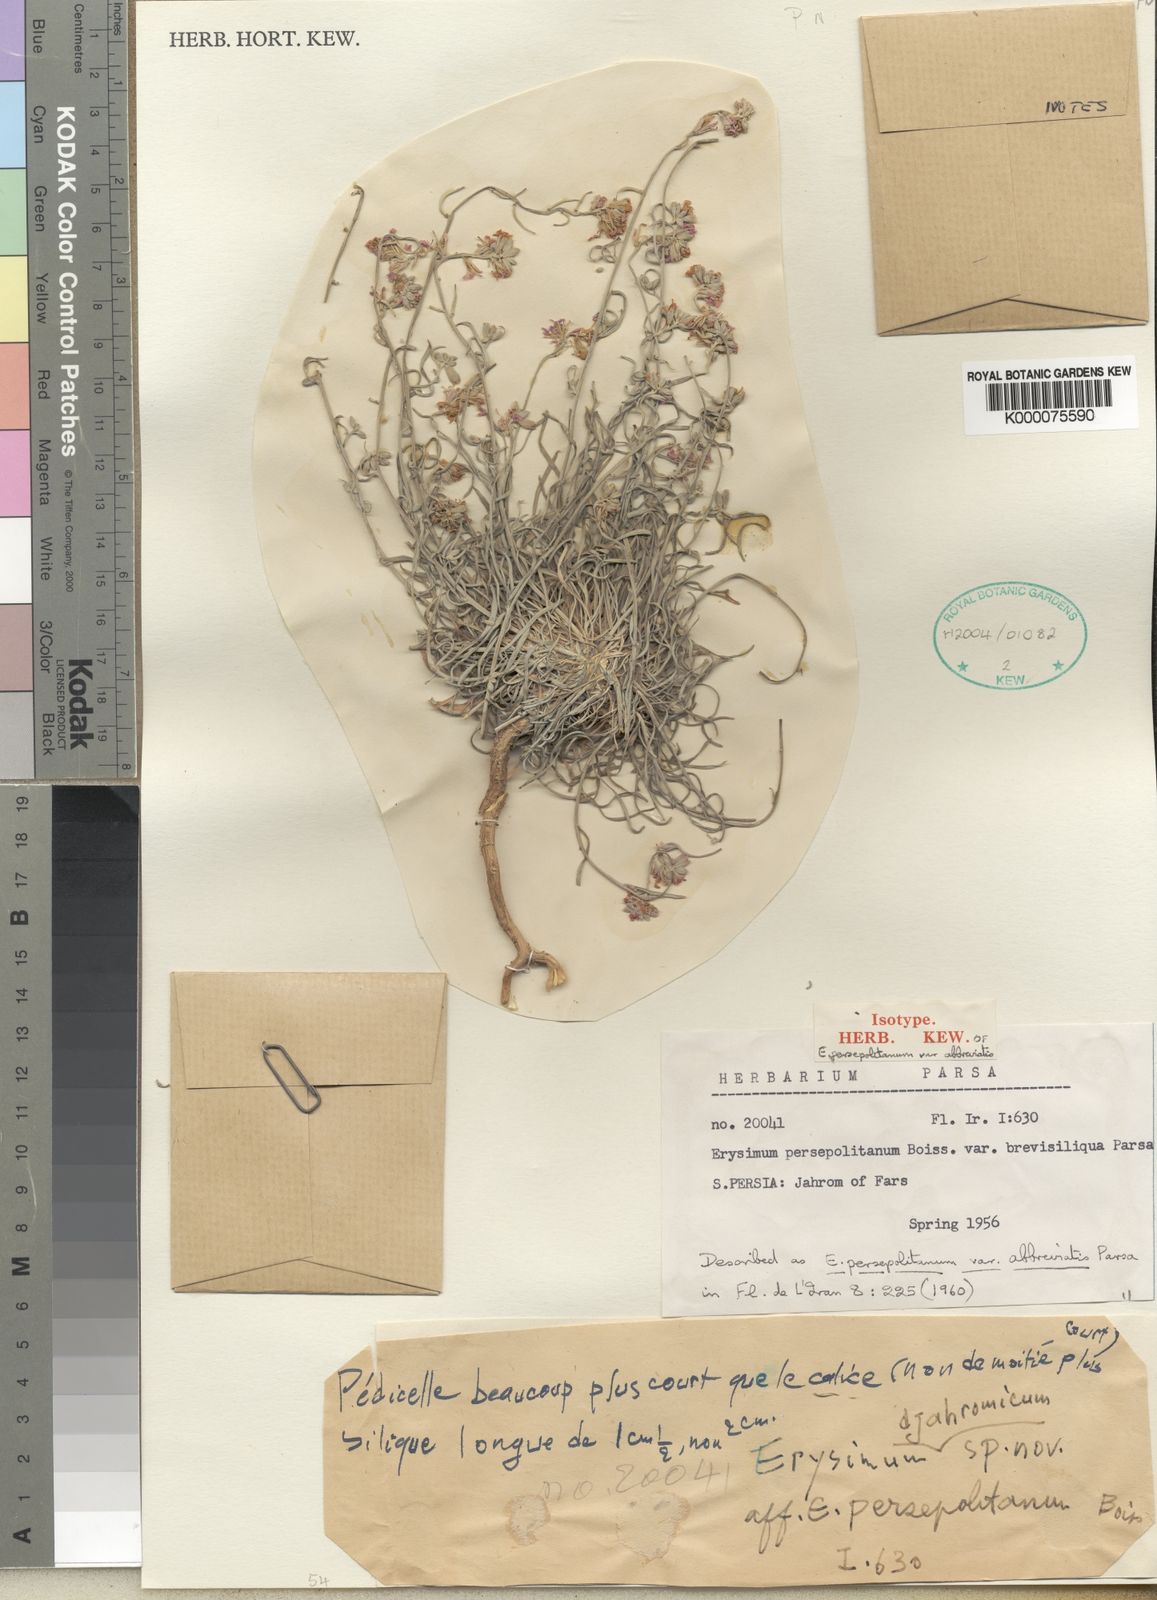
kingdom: Plantae
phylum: Tracheophyta
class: Magnoliopsida
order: Brassicales
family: Brassicaceae
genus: Erysimum
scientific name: Erysimum oleifolium
